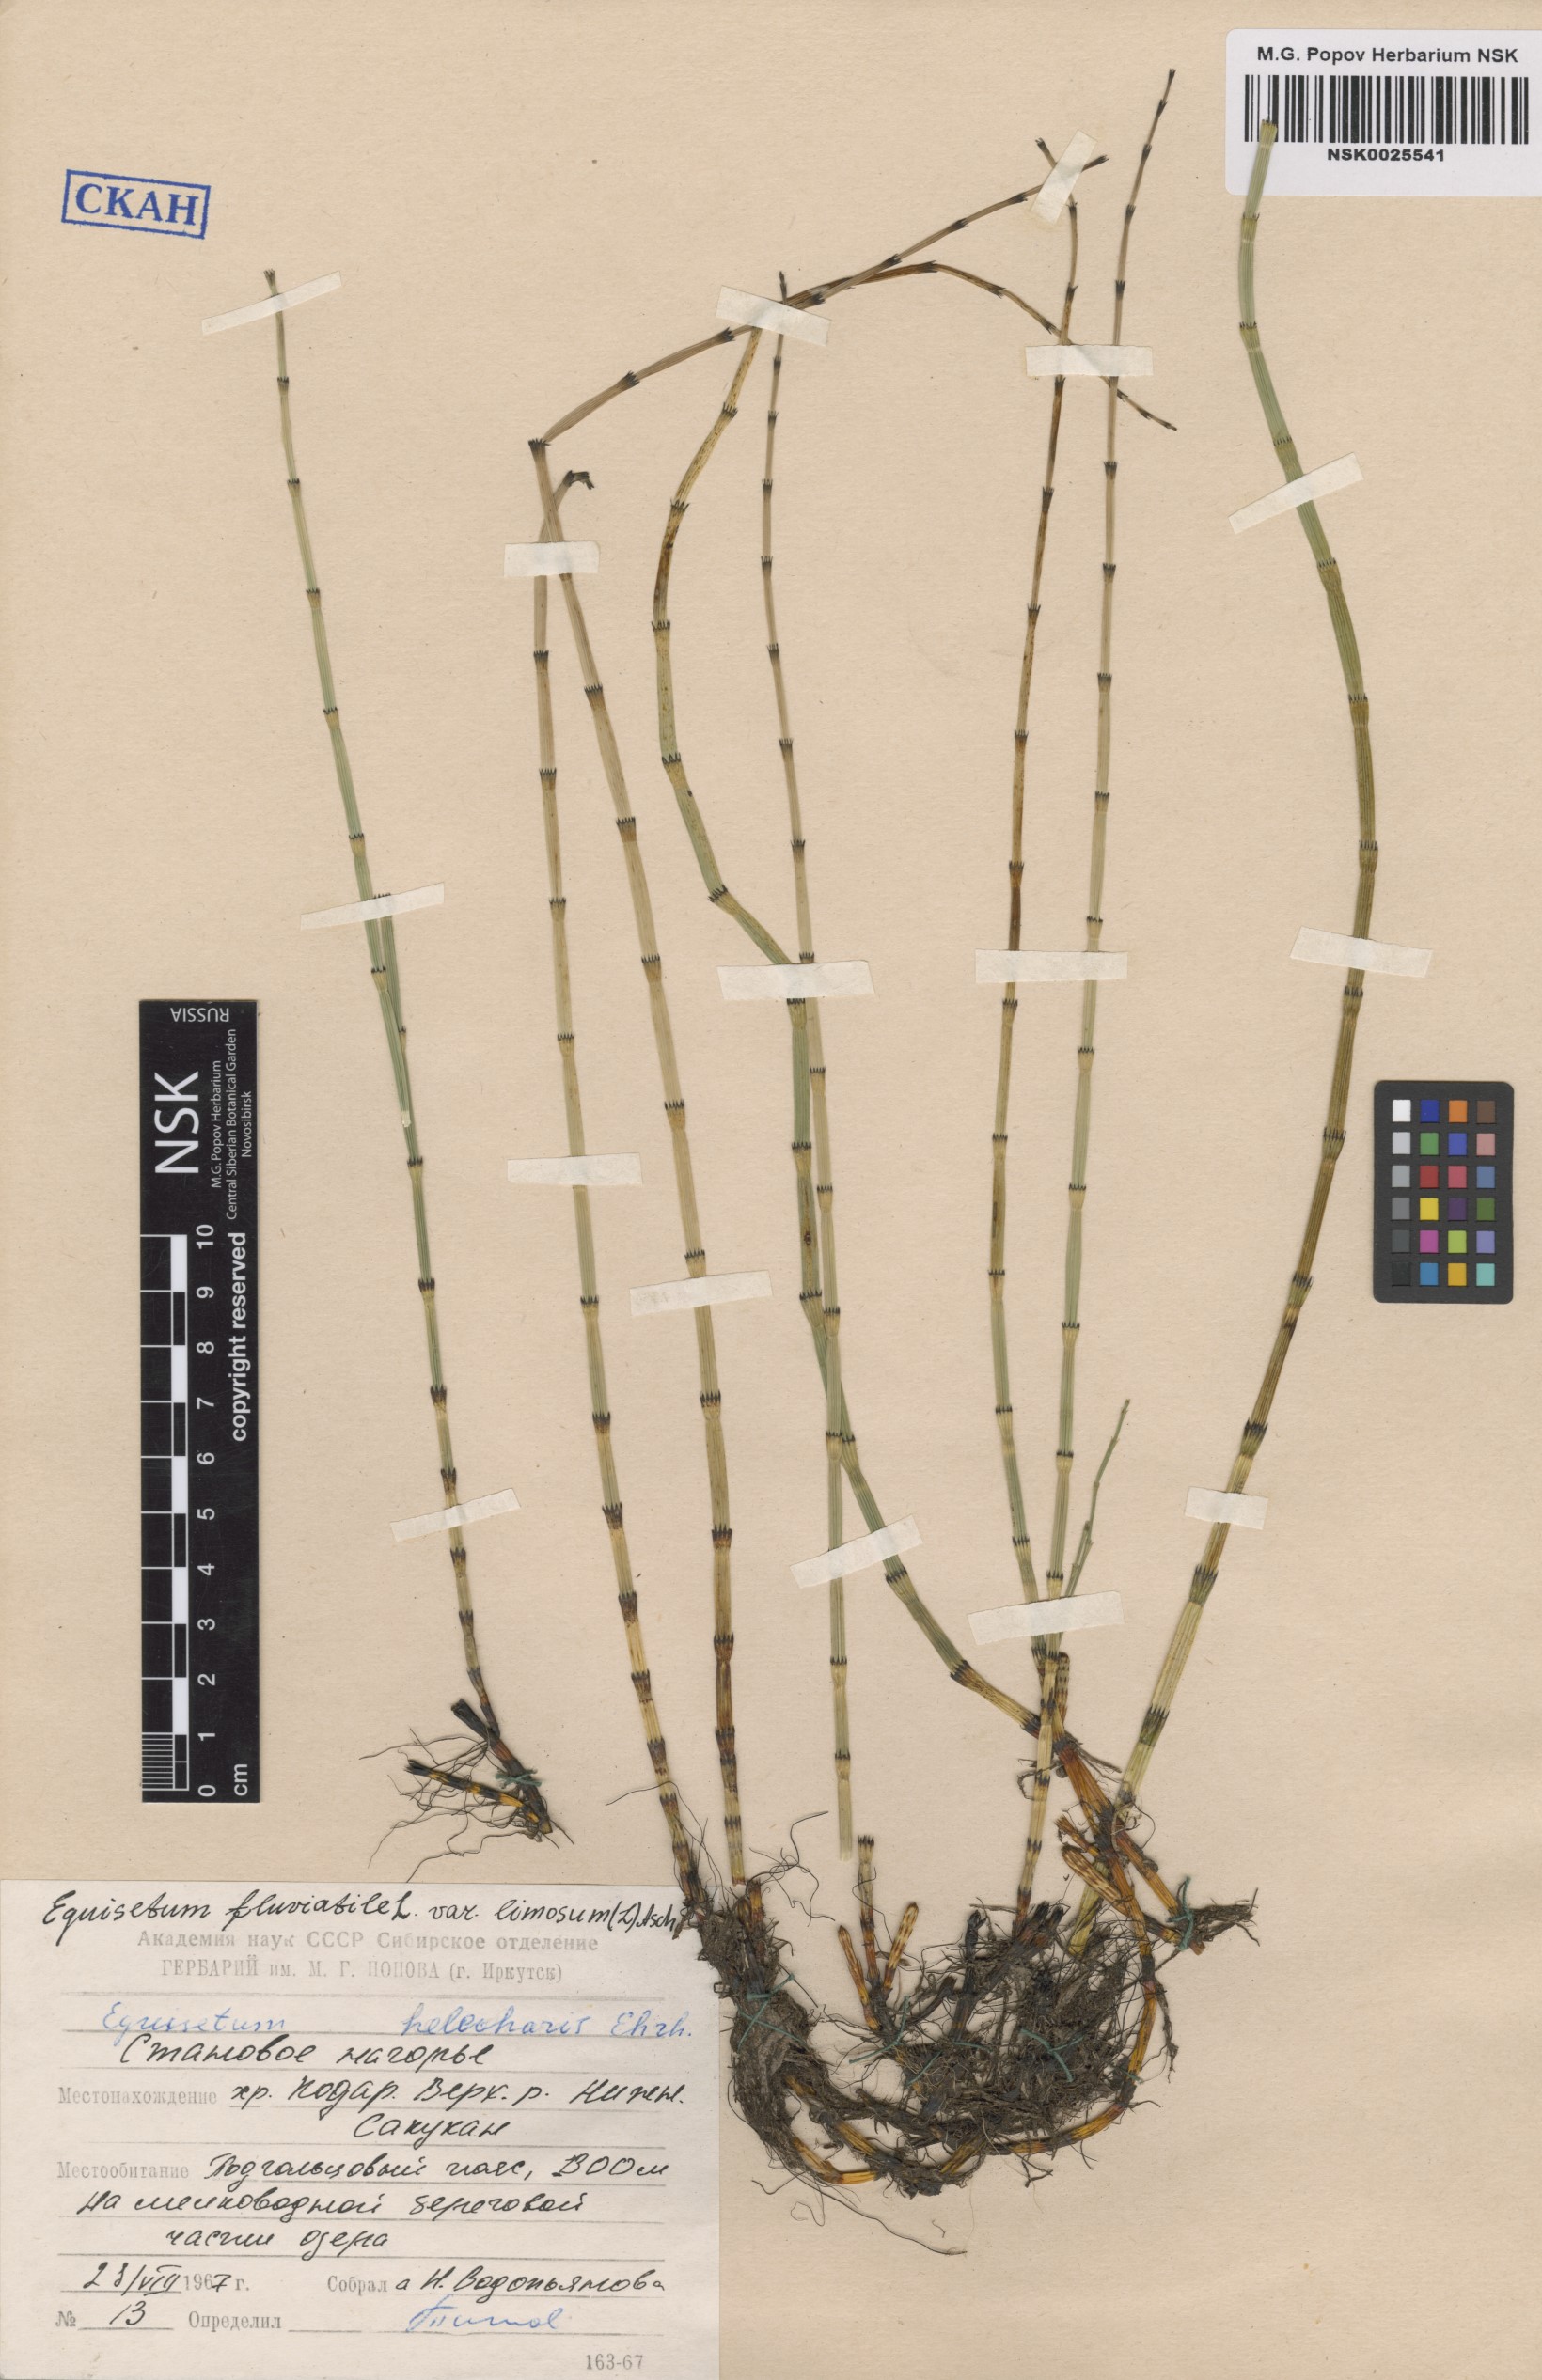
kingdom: Plantae
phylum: Tracheophyta
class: Polypodiopsida
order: Equisetales
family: Equisetaceae
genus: Equisetum
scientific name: Equisetum fluviatile
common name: Water horsetail
